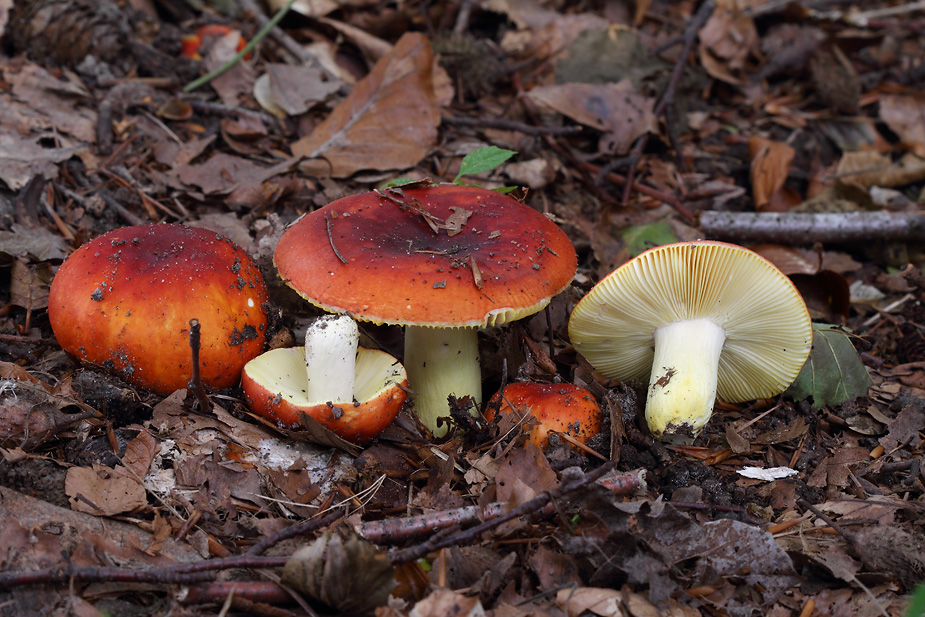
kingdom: Fungi
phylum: Basidiomycota
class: Agaricomycetes
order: Russulales
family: Russulaceae
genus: Russula
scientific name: Russula aurea
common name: gylden skørhat
